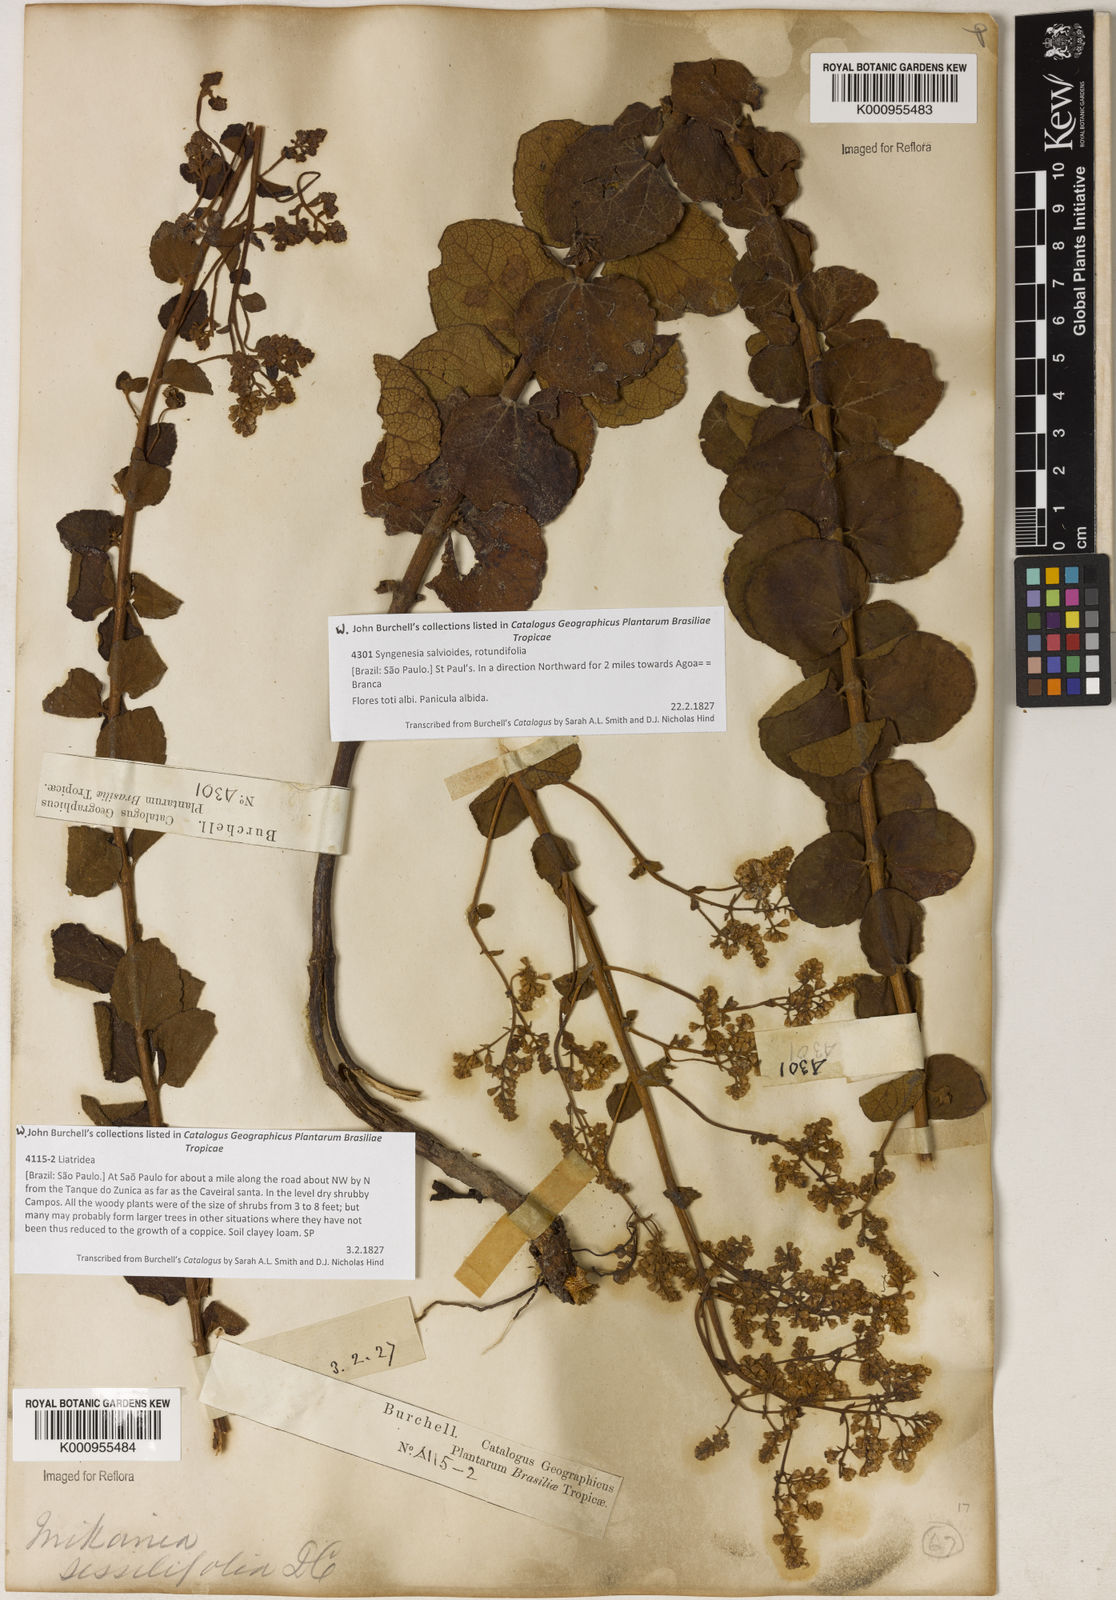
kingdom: Plantae
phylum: Tracheophyta
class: Magnoliopsida
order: Asterales
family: Asteraceae
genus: Mikania
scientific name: Mikania sessilifolia
